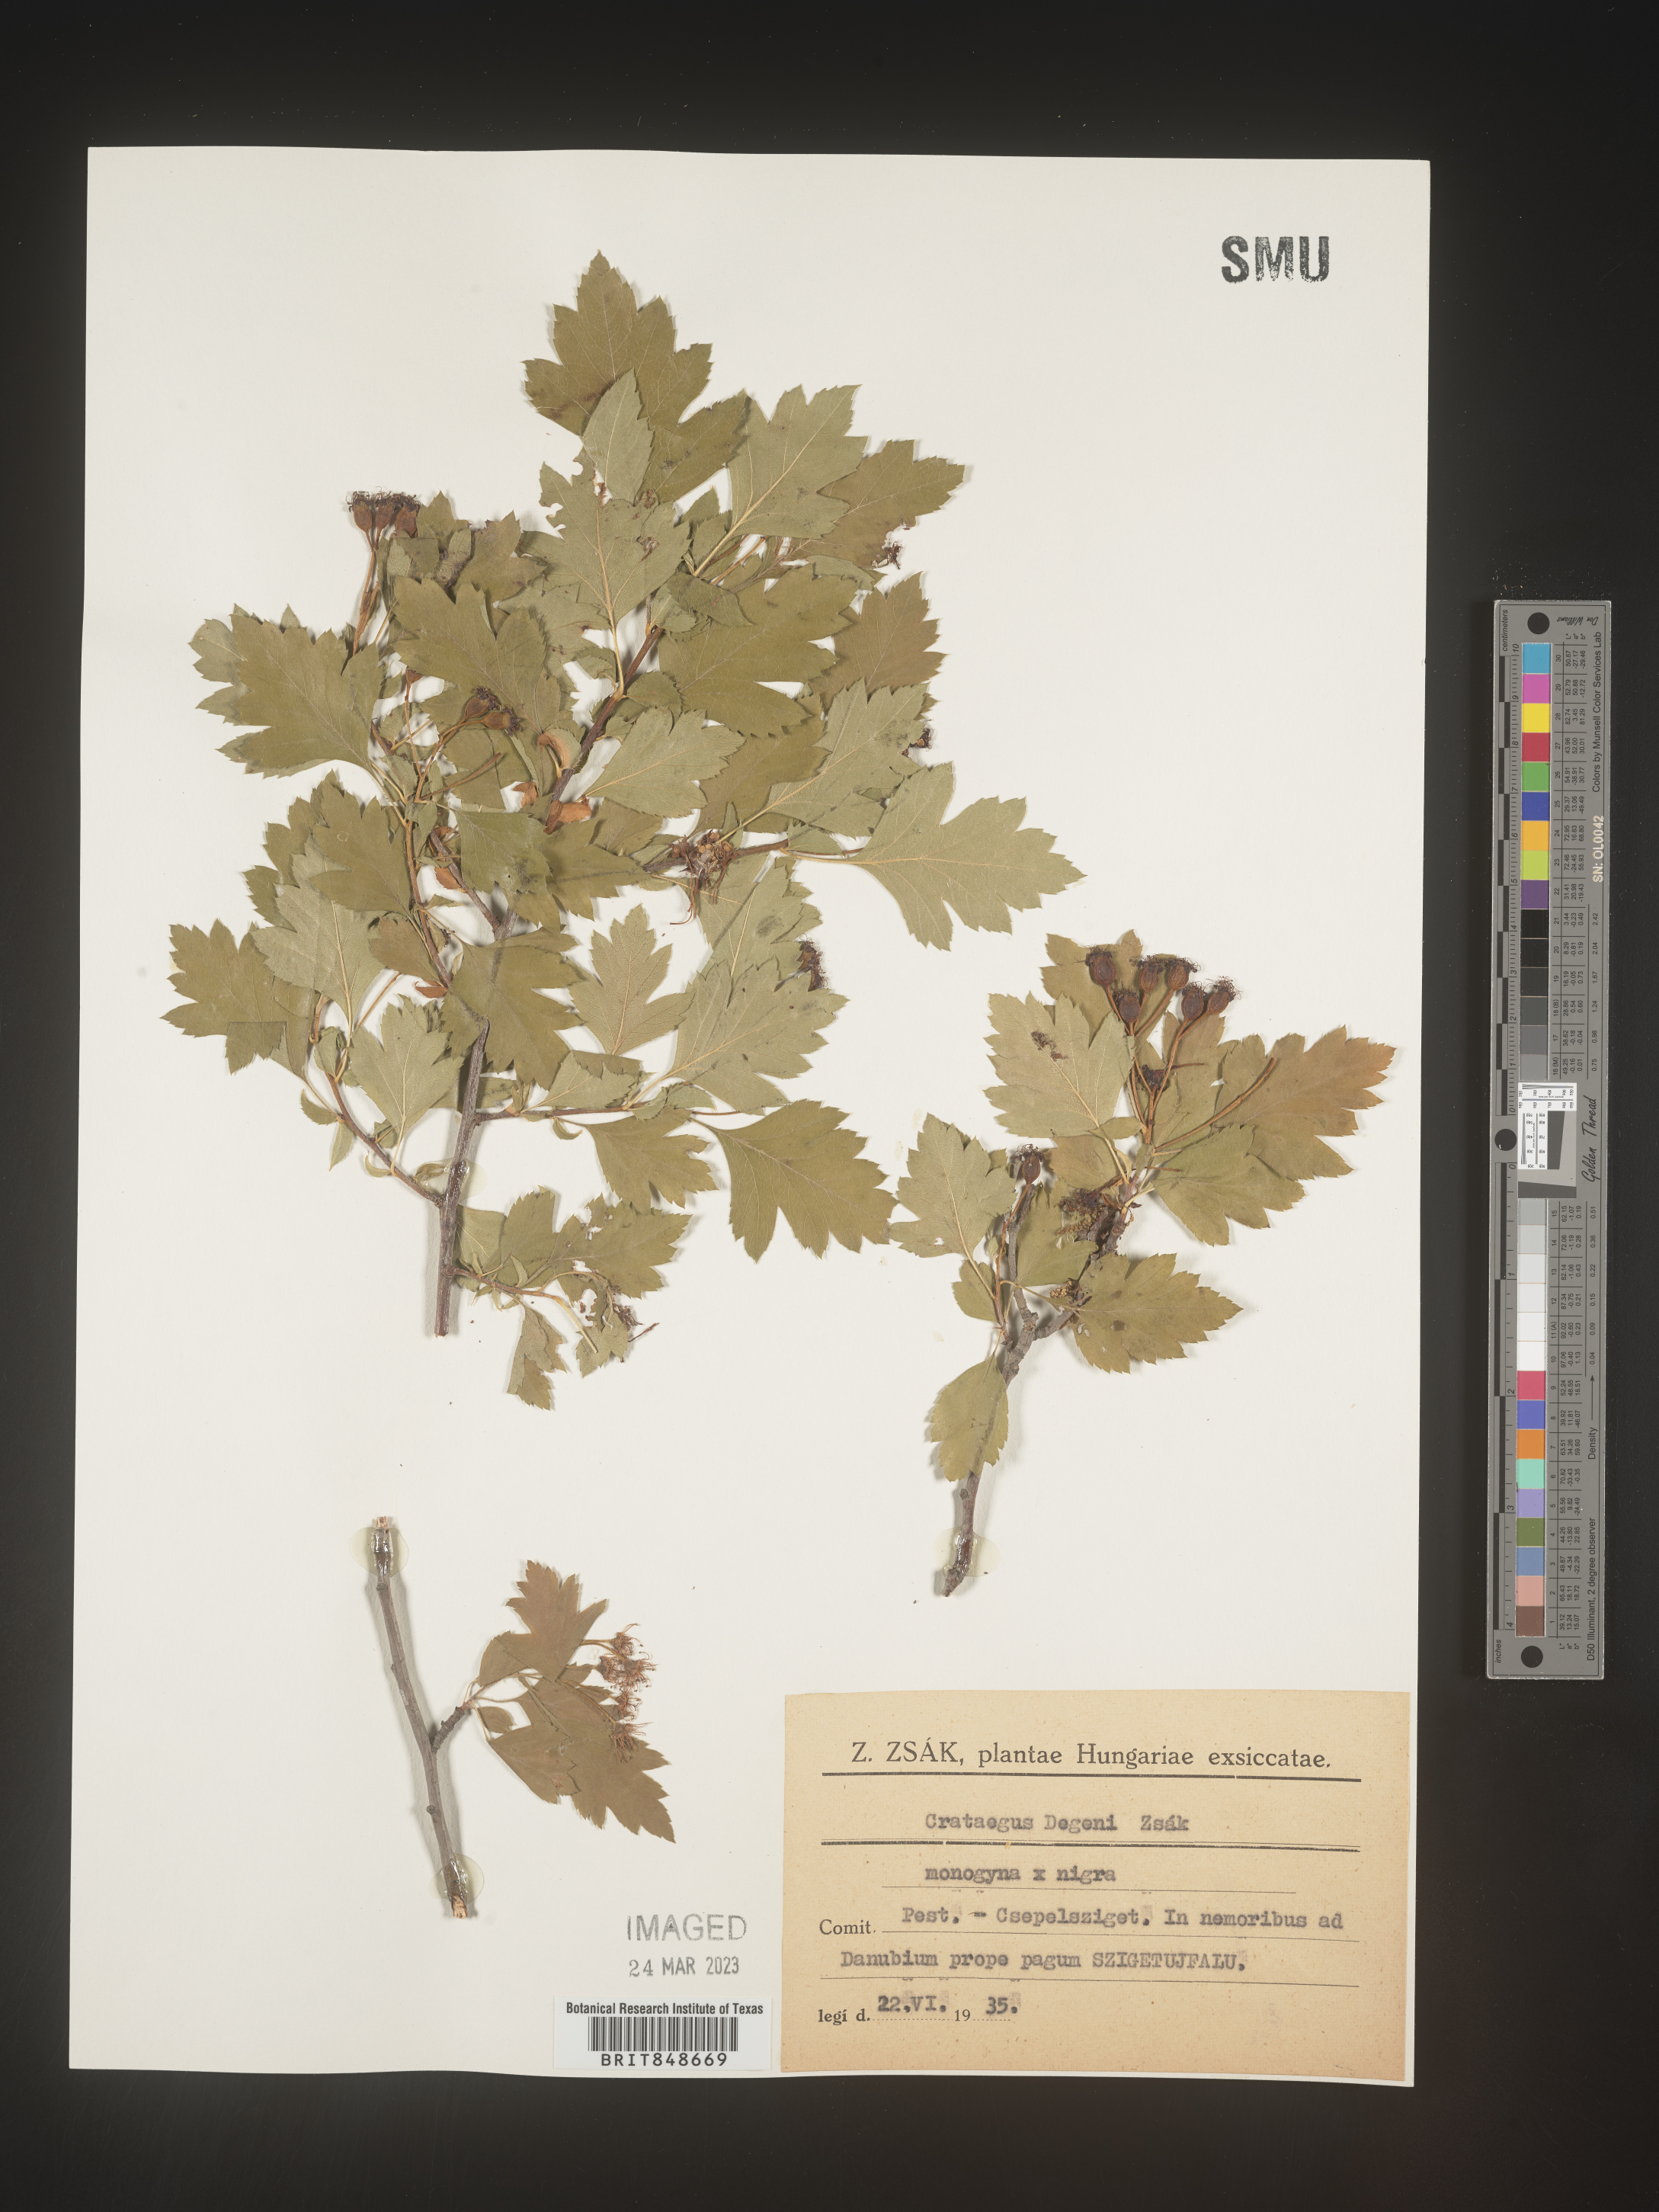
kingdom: Plantae
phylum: Tracheophyta
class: Magnoliopsida
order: Rosales
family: Rosaceae
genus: Crataegus
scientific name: Crataegus
